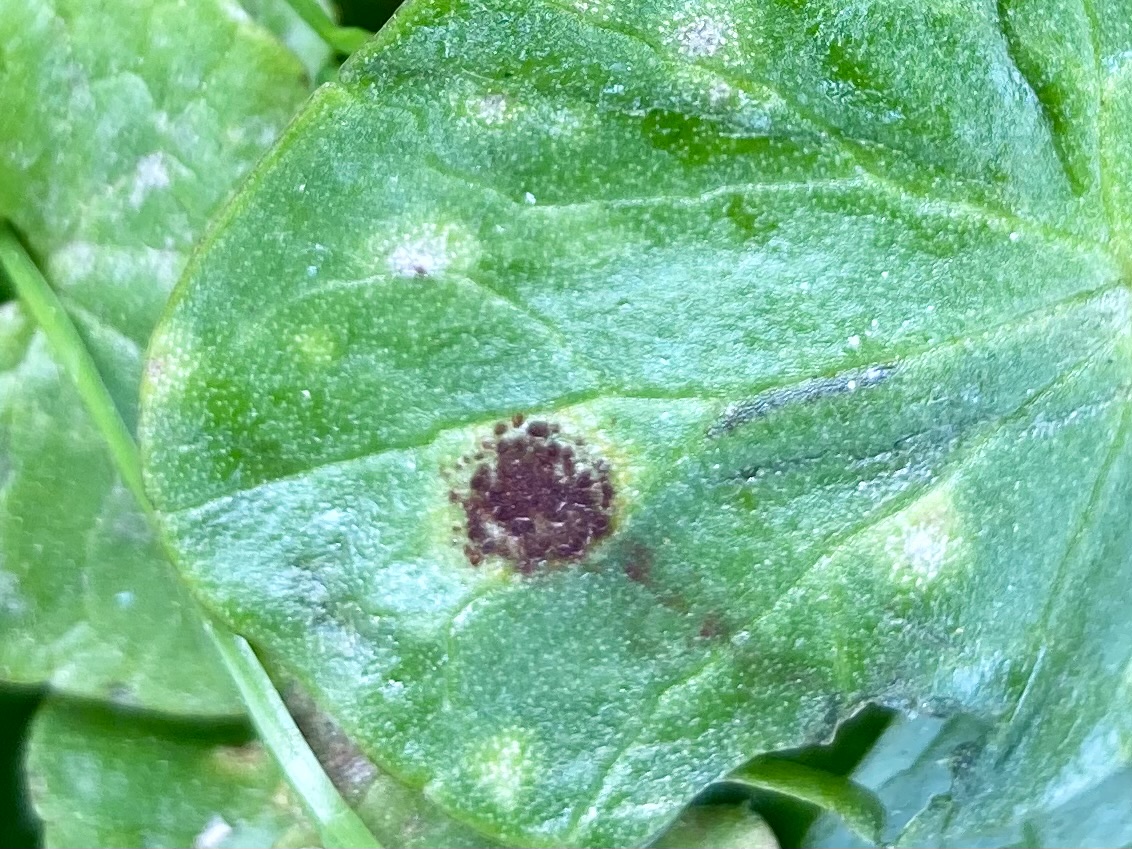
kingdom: Fungi
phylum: Basidiomycota
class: Pucciniomycetes
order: Pucciniales
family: Pucciniaceae
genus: Uromyces
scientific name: Uromyces ficariae
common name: vorterod-encellerust
